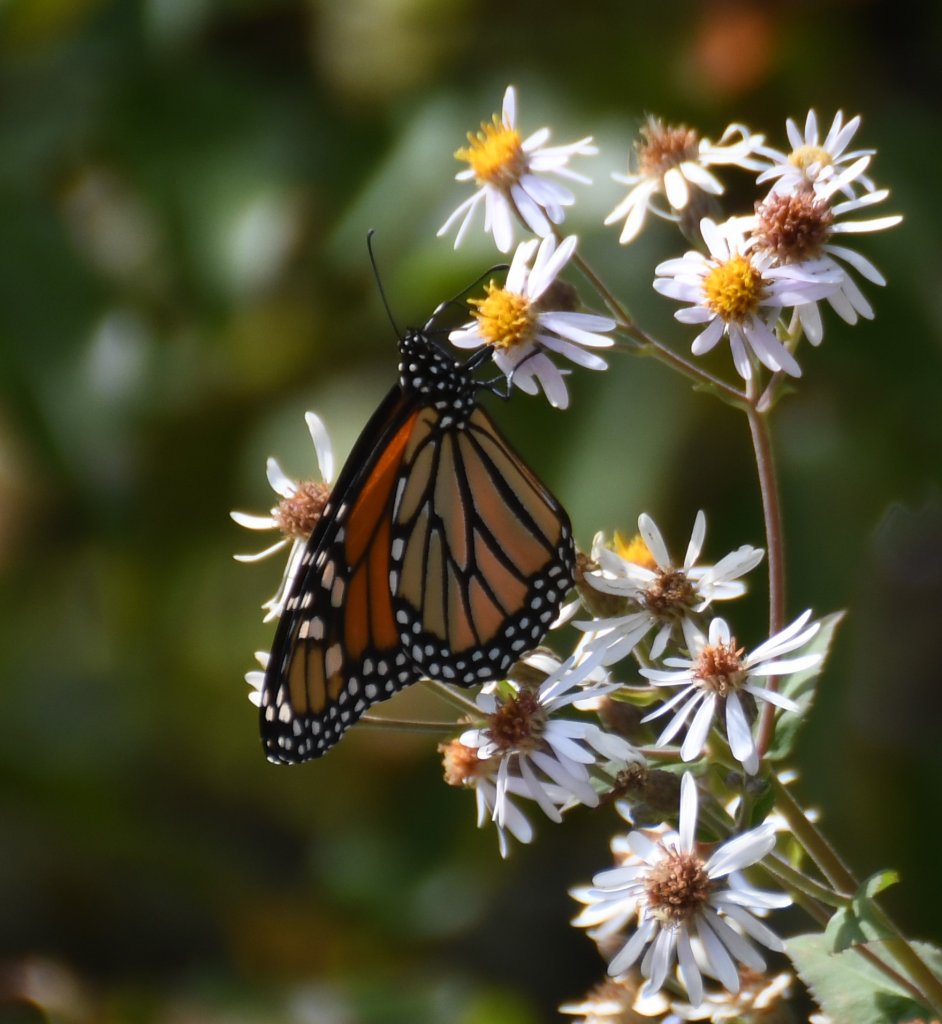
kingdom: Animalia
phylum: Arthropoda
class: Insecta
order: Lepidoptera
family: Nymphalidae
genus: Danaus
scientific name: Danaus plexippus
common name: Monarch
